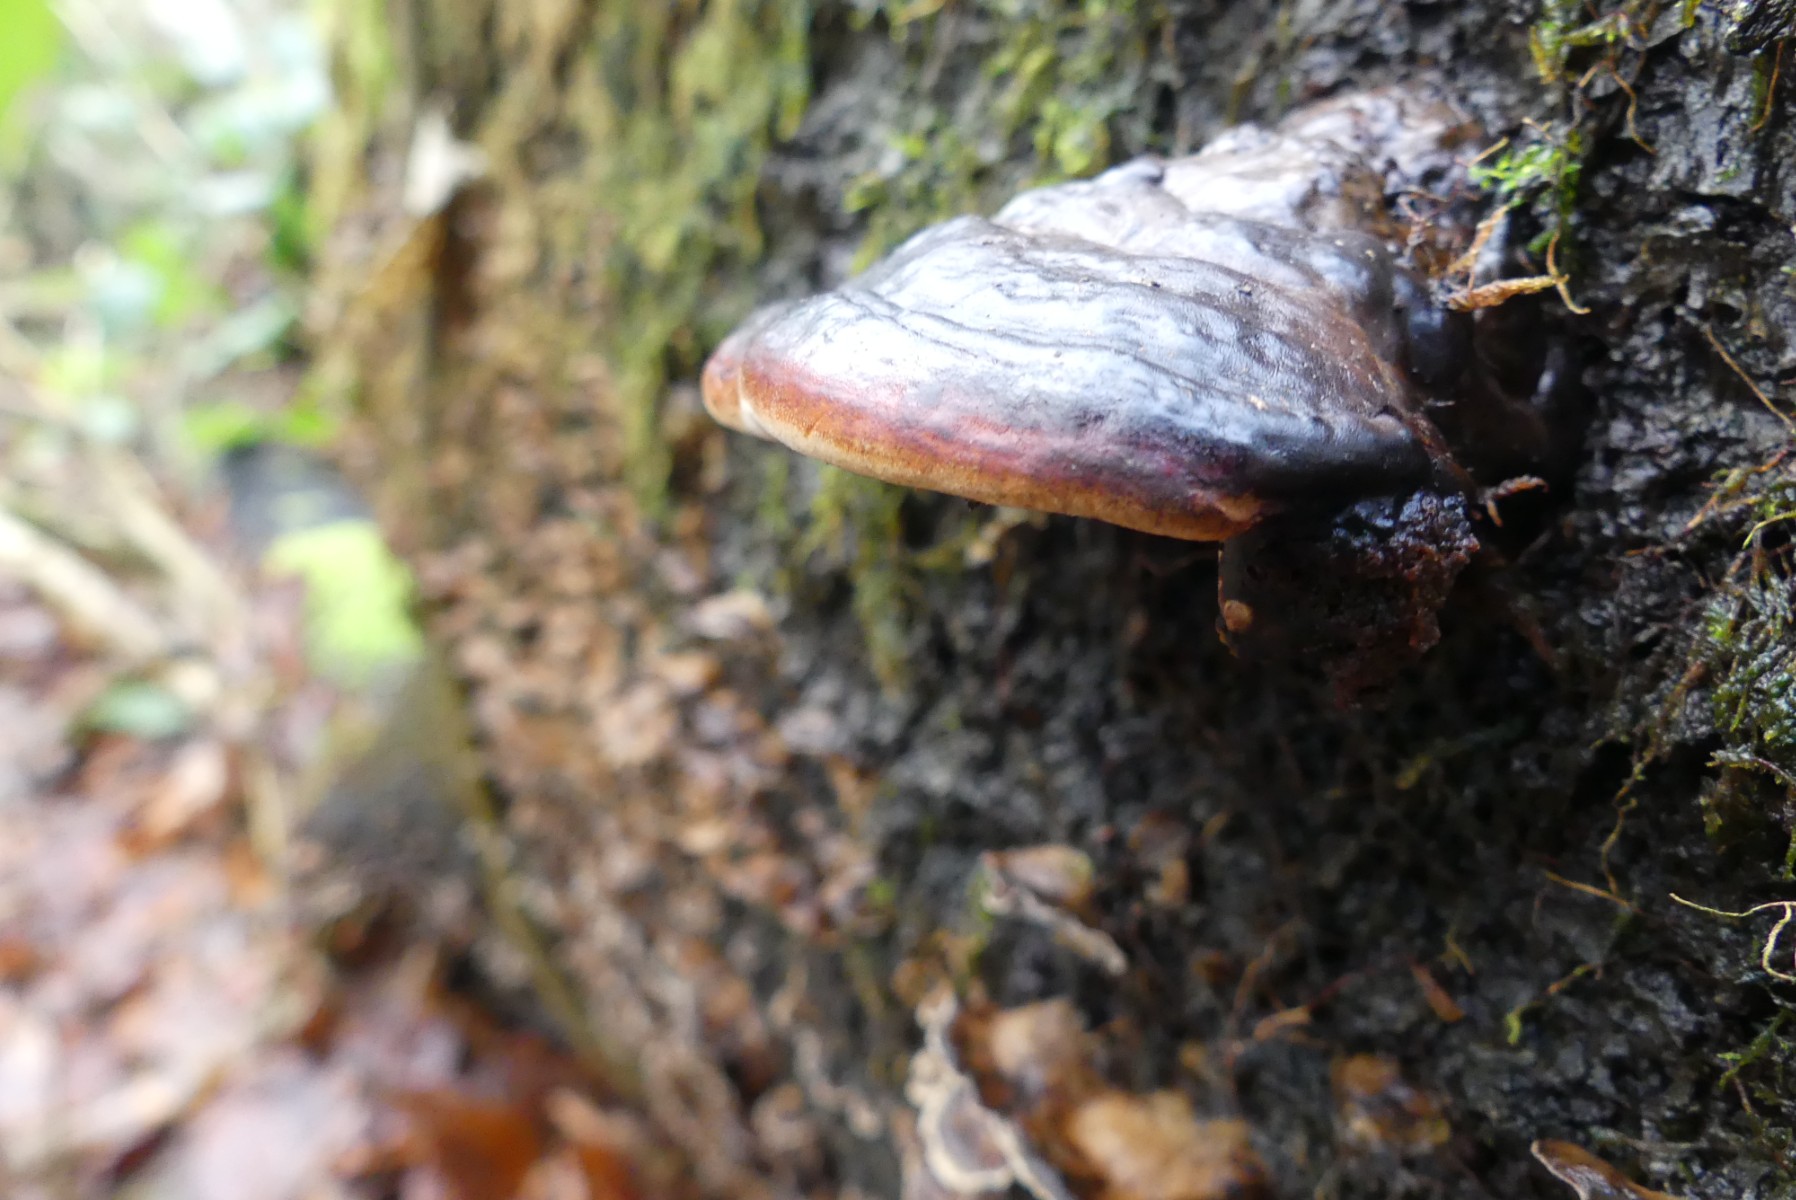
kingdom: Fungi
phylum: Basidiomycota
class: Agaricomycetes
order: Polyporales
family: Fomitopsidaceae
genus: Fomitopsis
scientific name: Fomitopsis pinicola
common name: randbæltet hovporesvamp
